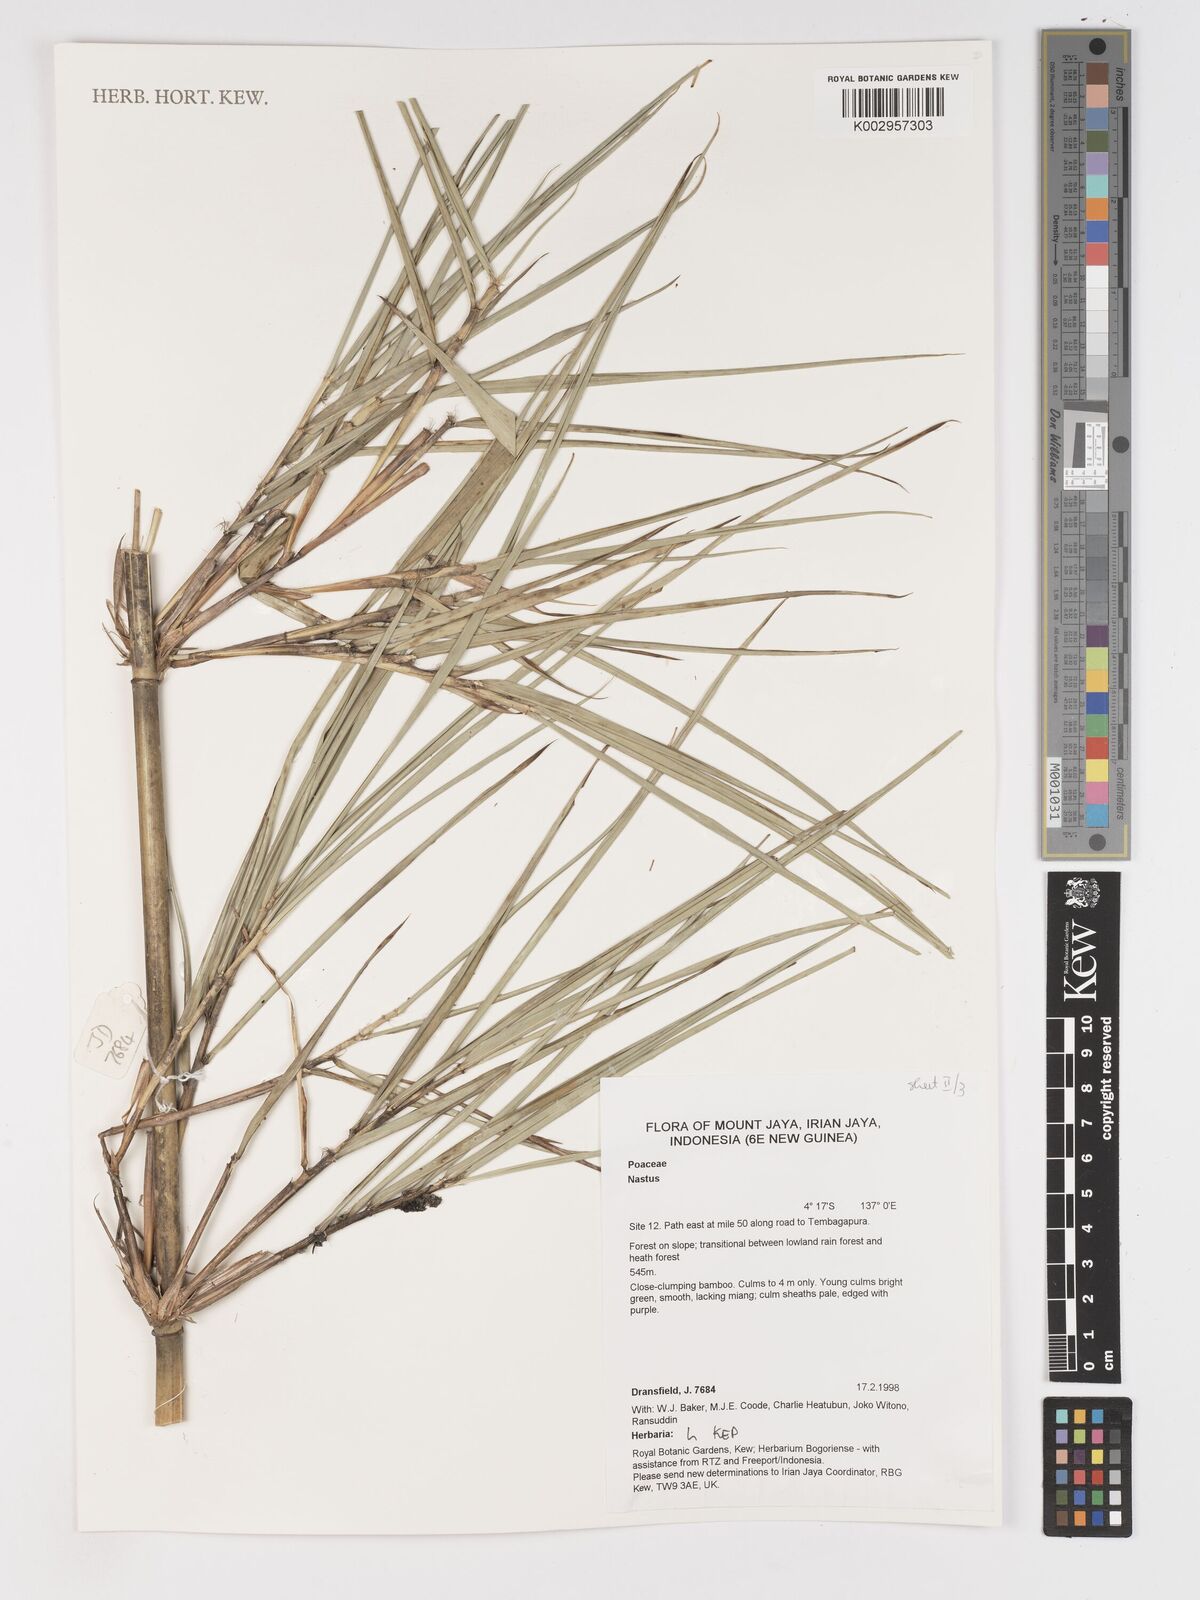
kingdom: Plantae
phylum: Tracheophyta
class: Liliopsida
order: Poales
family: Poaceae
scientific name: Poaceae
